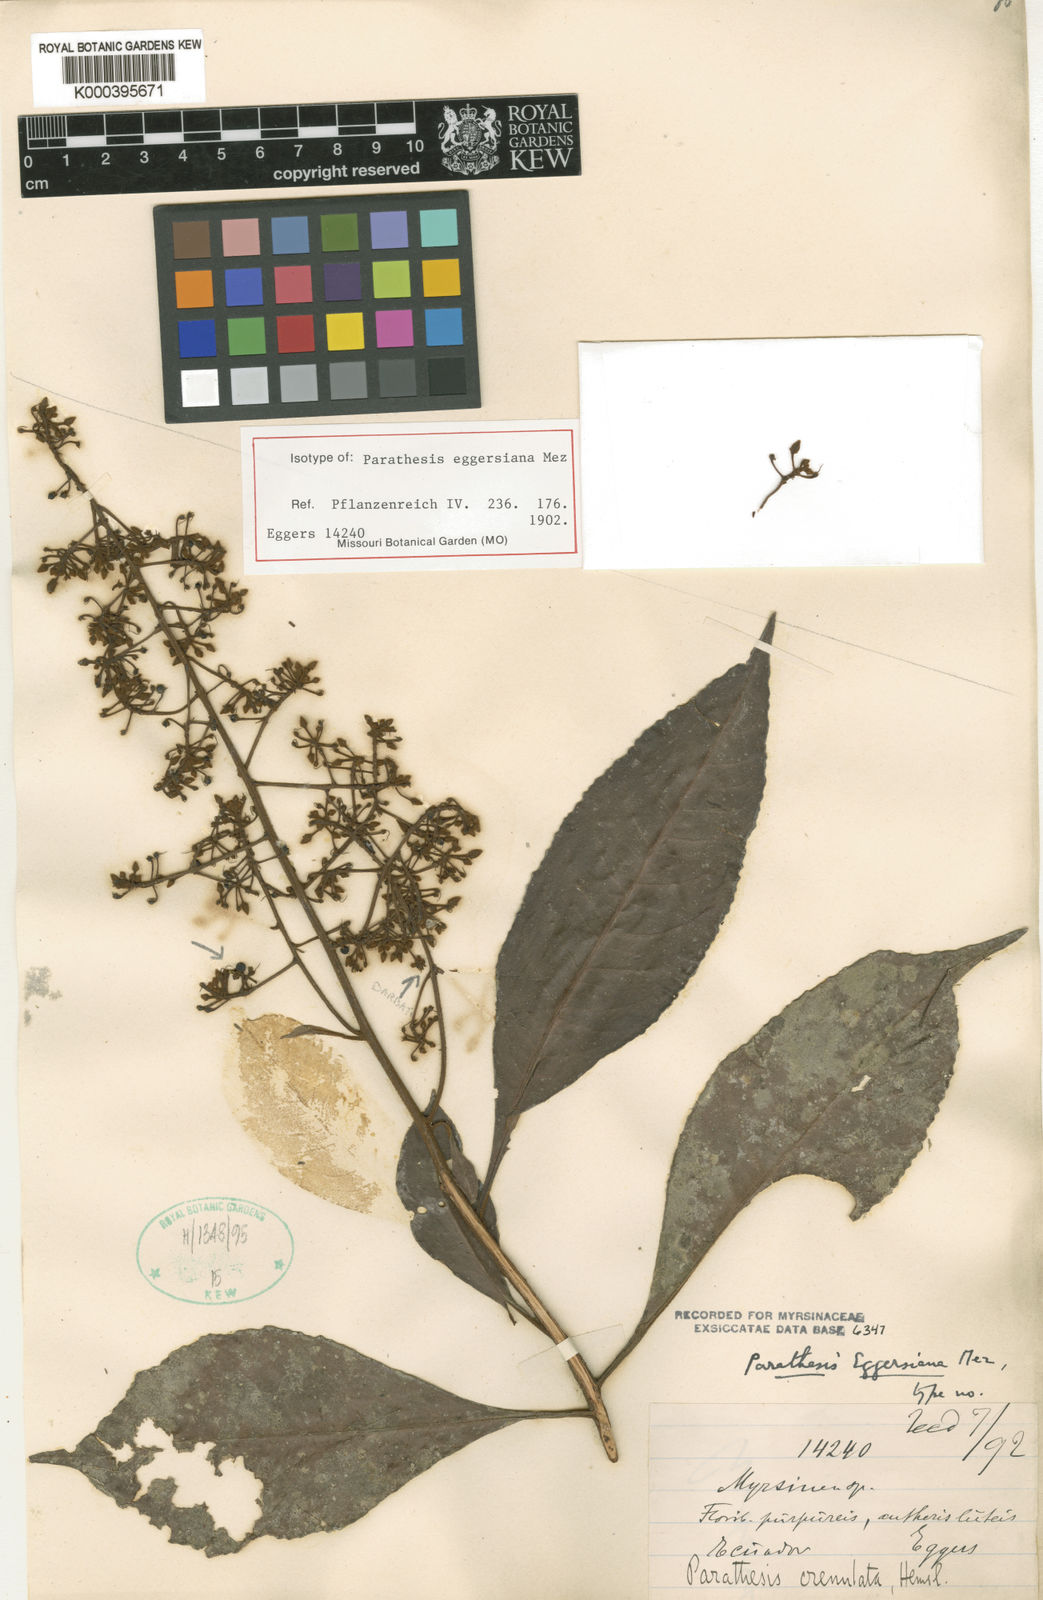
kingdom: Plantae
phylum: Tracheophyta
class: Magnoliopsida
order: Ericales
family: Primulaceae
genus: Parathesis
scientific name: Parathesis eggersiana
